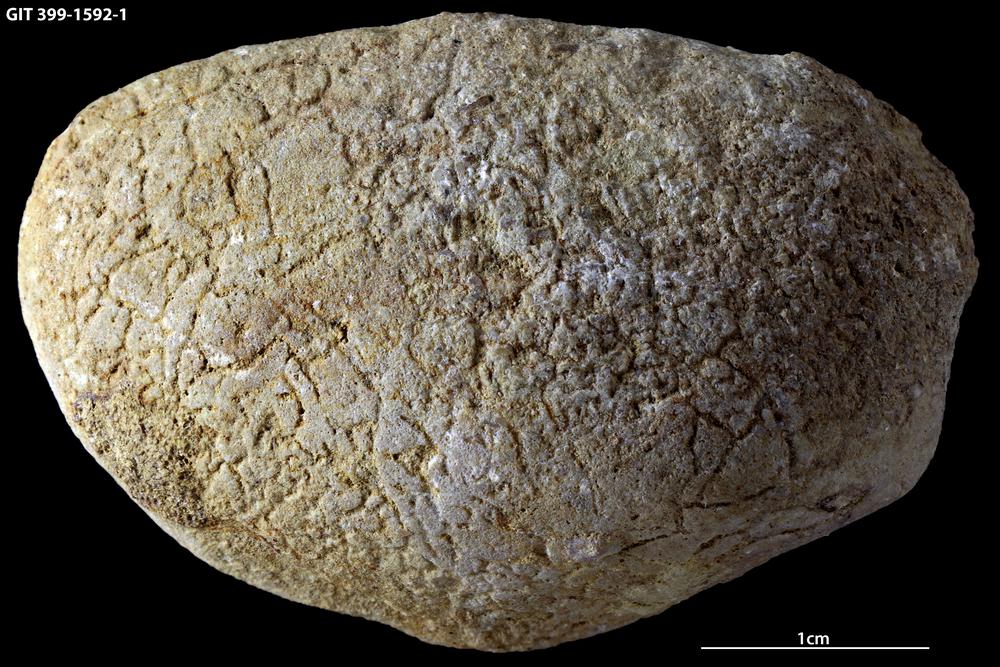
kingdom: Animalia
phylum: Annelida
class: Polychaeta
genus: Arachnostega
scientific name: Arachnostega gastrochaenae
